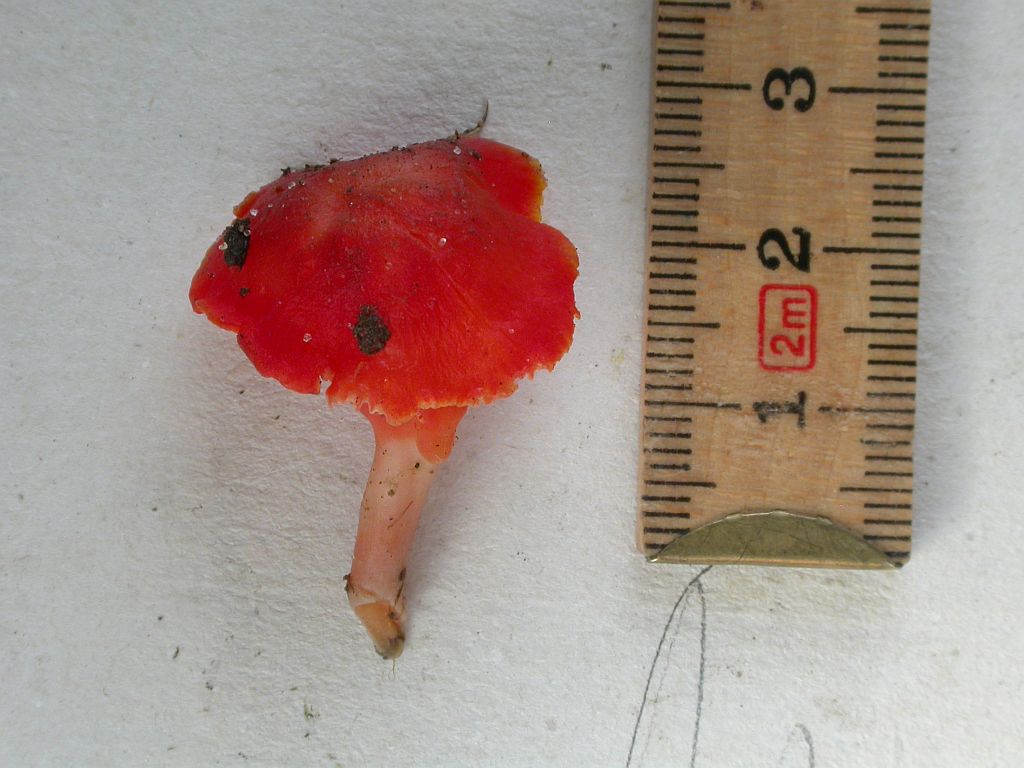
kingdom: Fungi
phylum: Basidiomycota
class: Agaricomycetes
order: Agaricales
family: Hygrophoraceae
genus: Hygrocybe
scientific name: Hygrocybe phaeococcinea
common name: sortdugget vokshat
